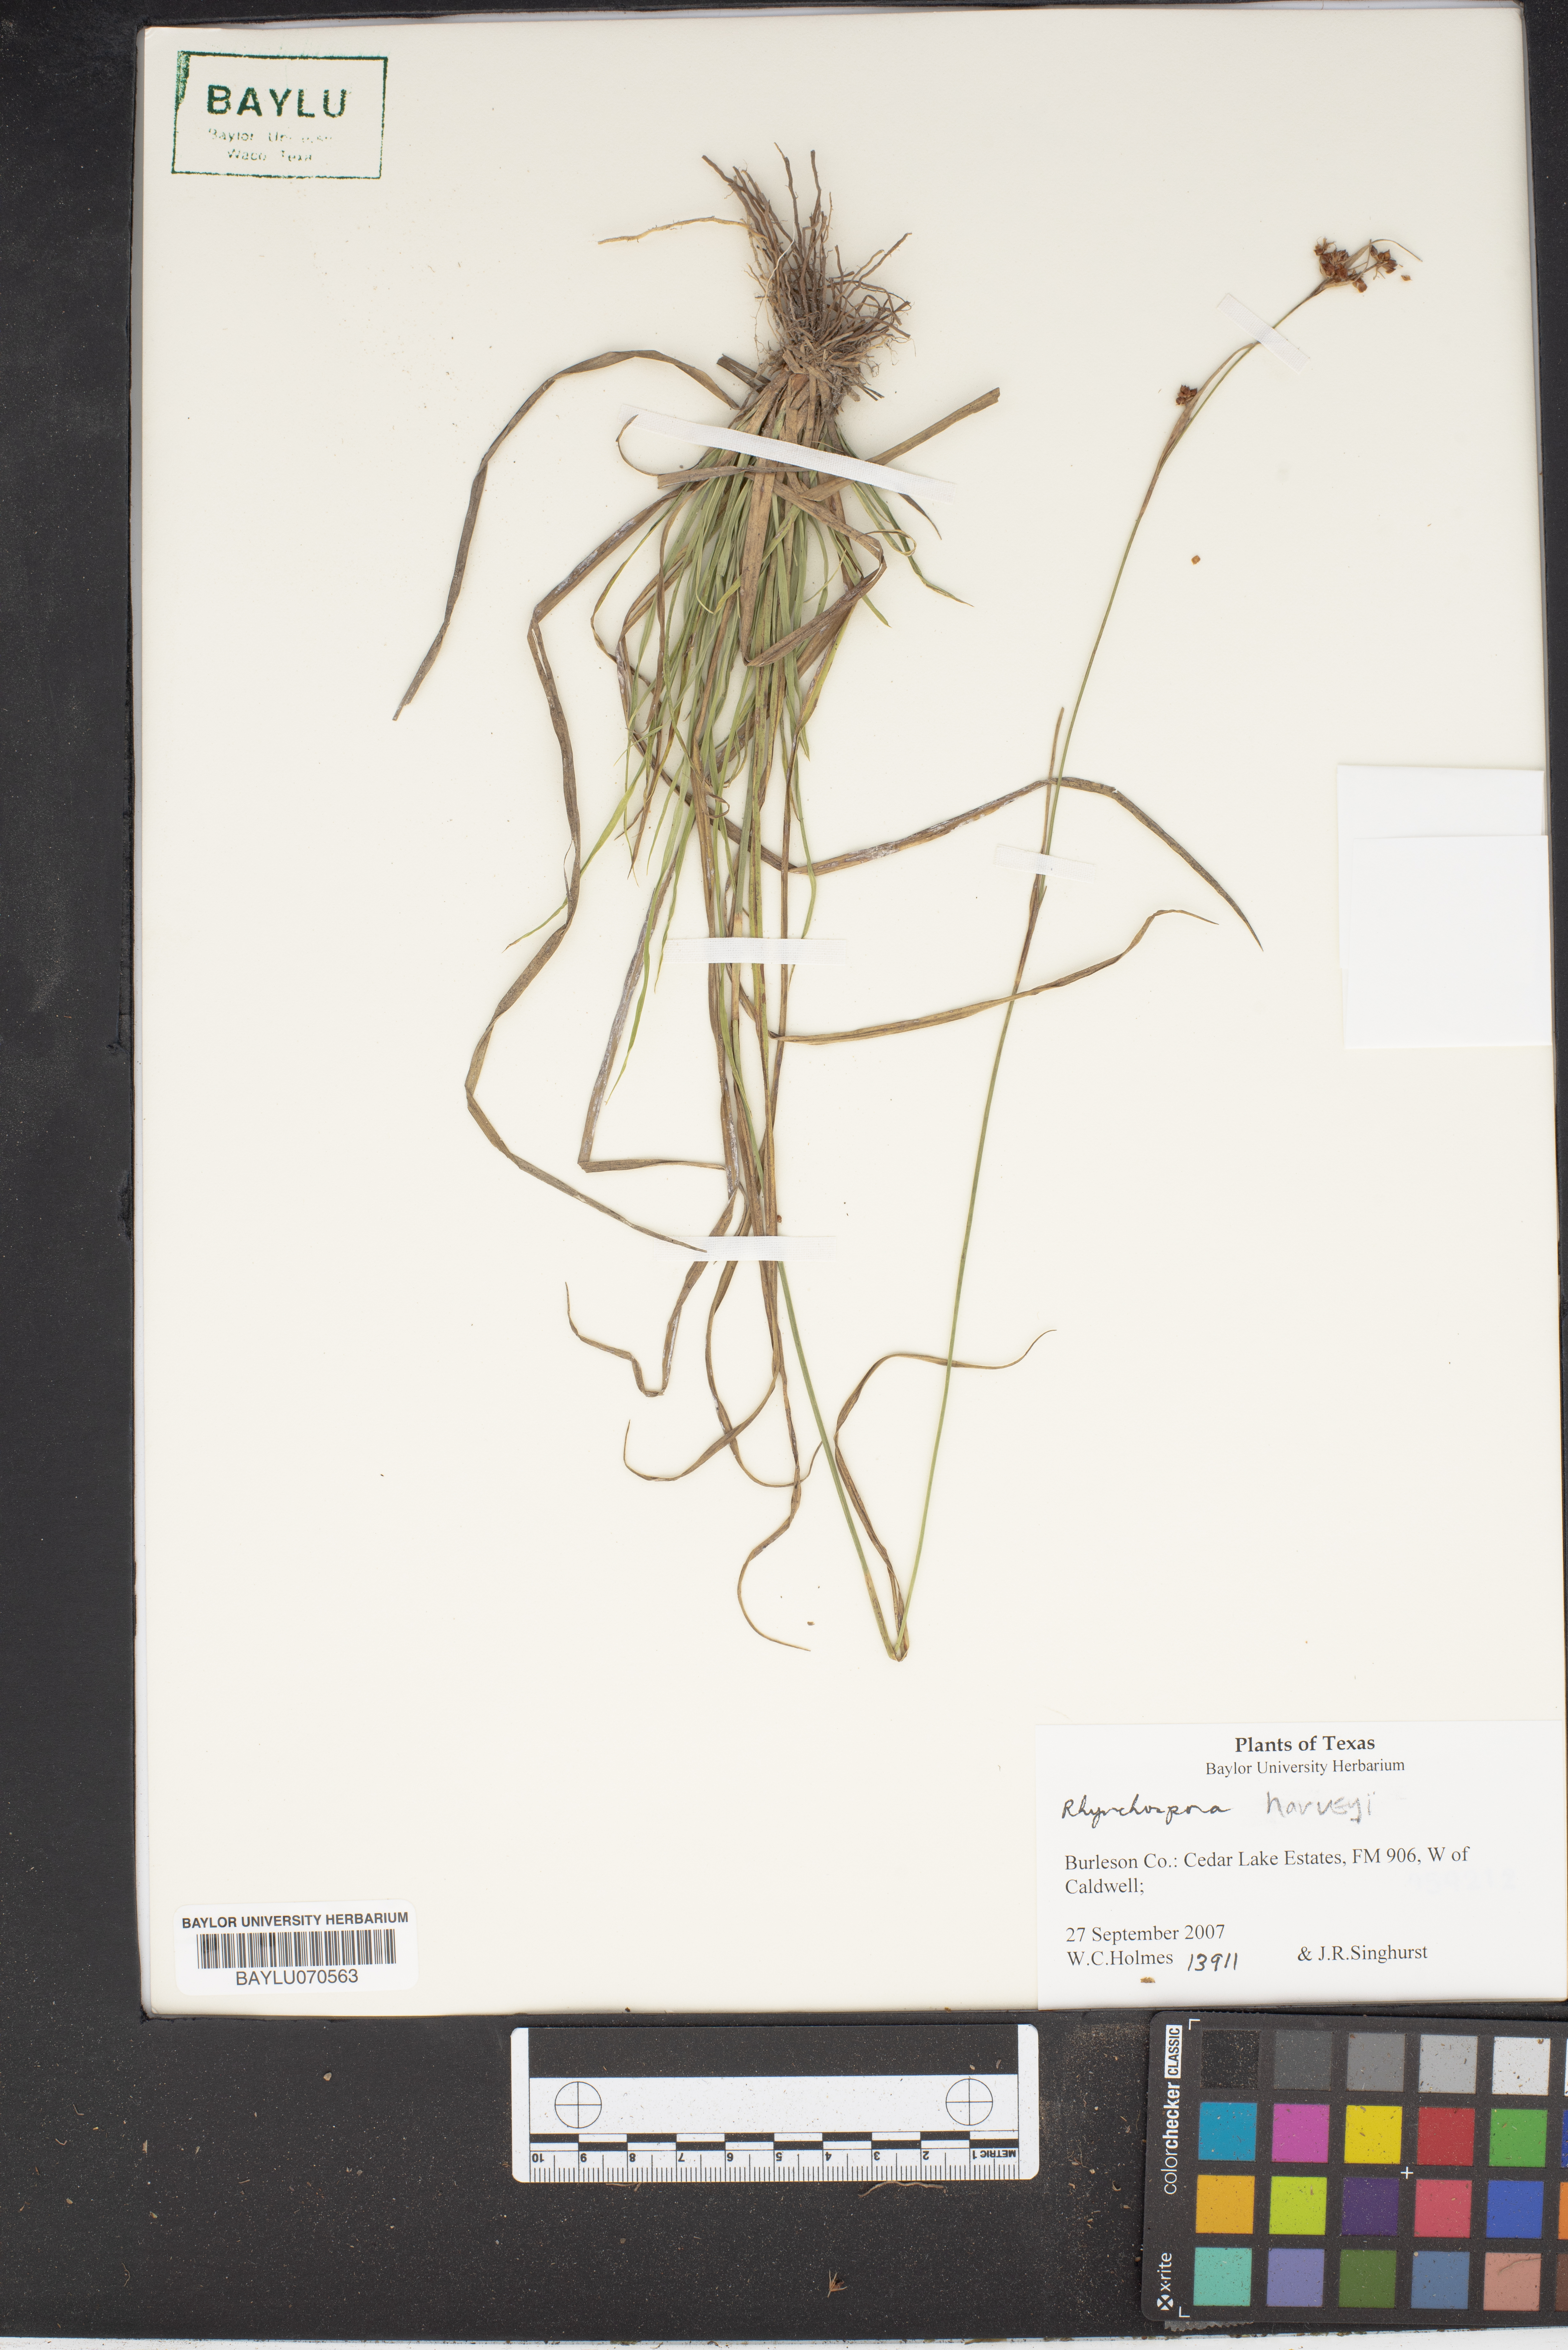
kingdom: Plantae
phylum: Tracheophyta
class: Liliopsida
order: Poales
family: Cyperaceae
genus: Rhynchospora
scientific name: Rhynchospora harveyi
